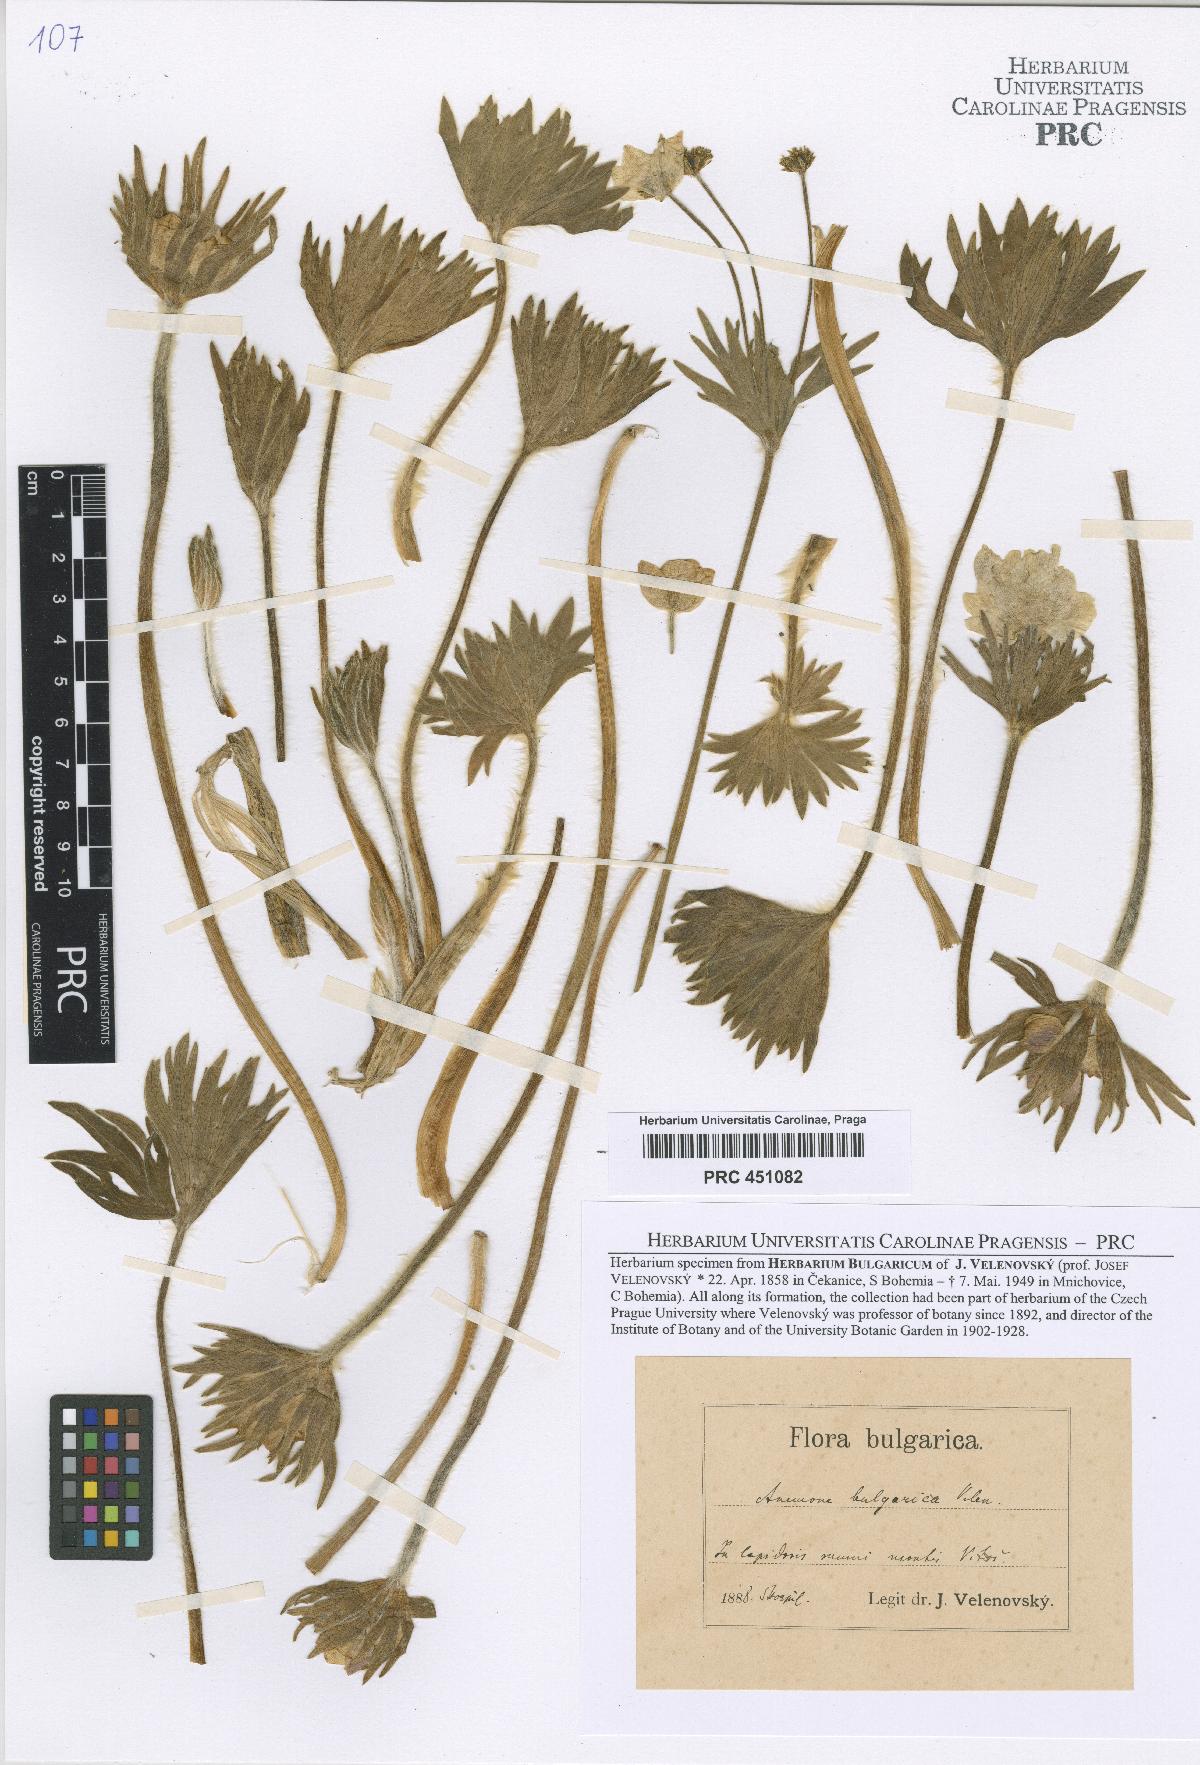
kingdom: Plantae
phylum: Tracheophyta
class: Magnoliopsida
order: Ranunculales
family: Ranunculaceae
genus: Pulsatilla
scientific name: Pulsatilla montana
